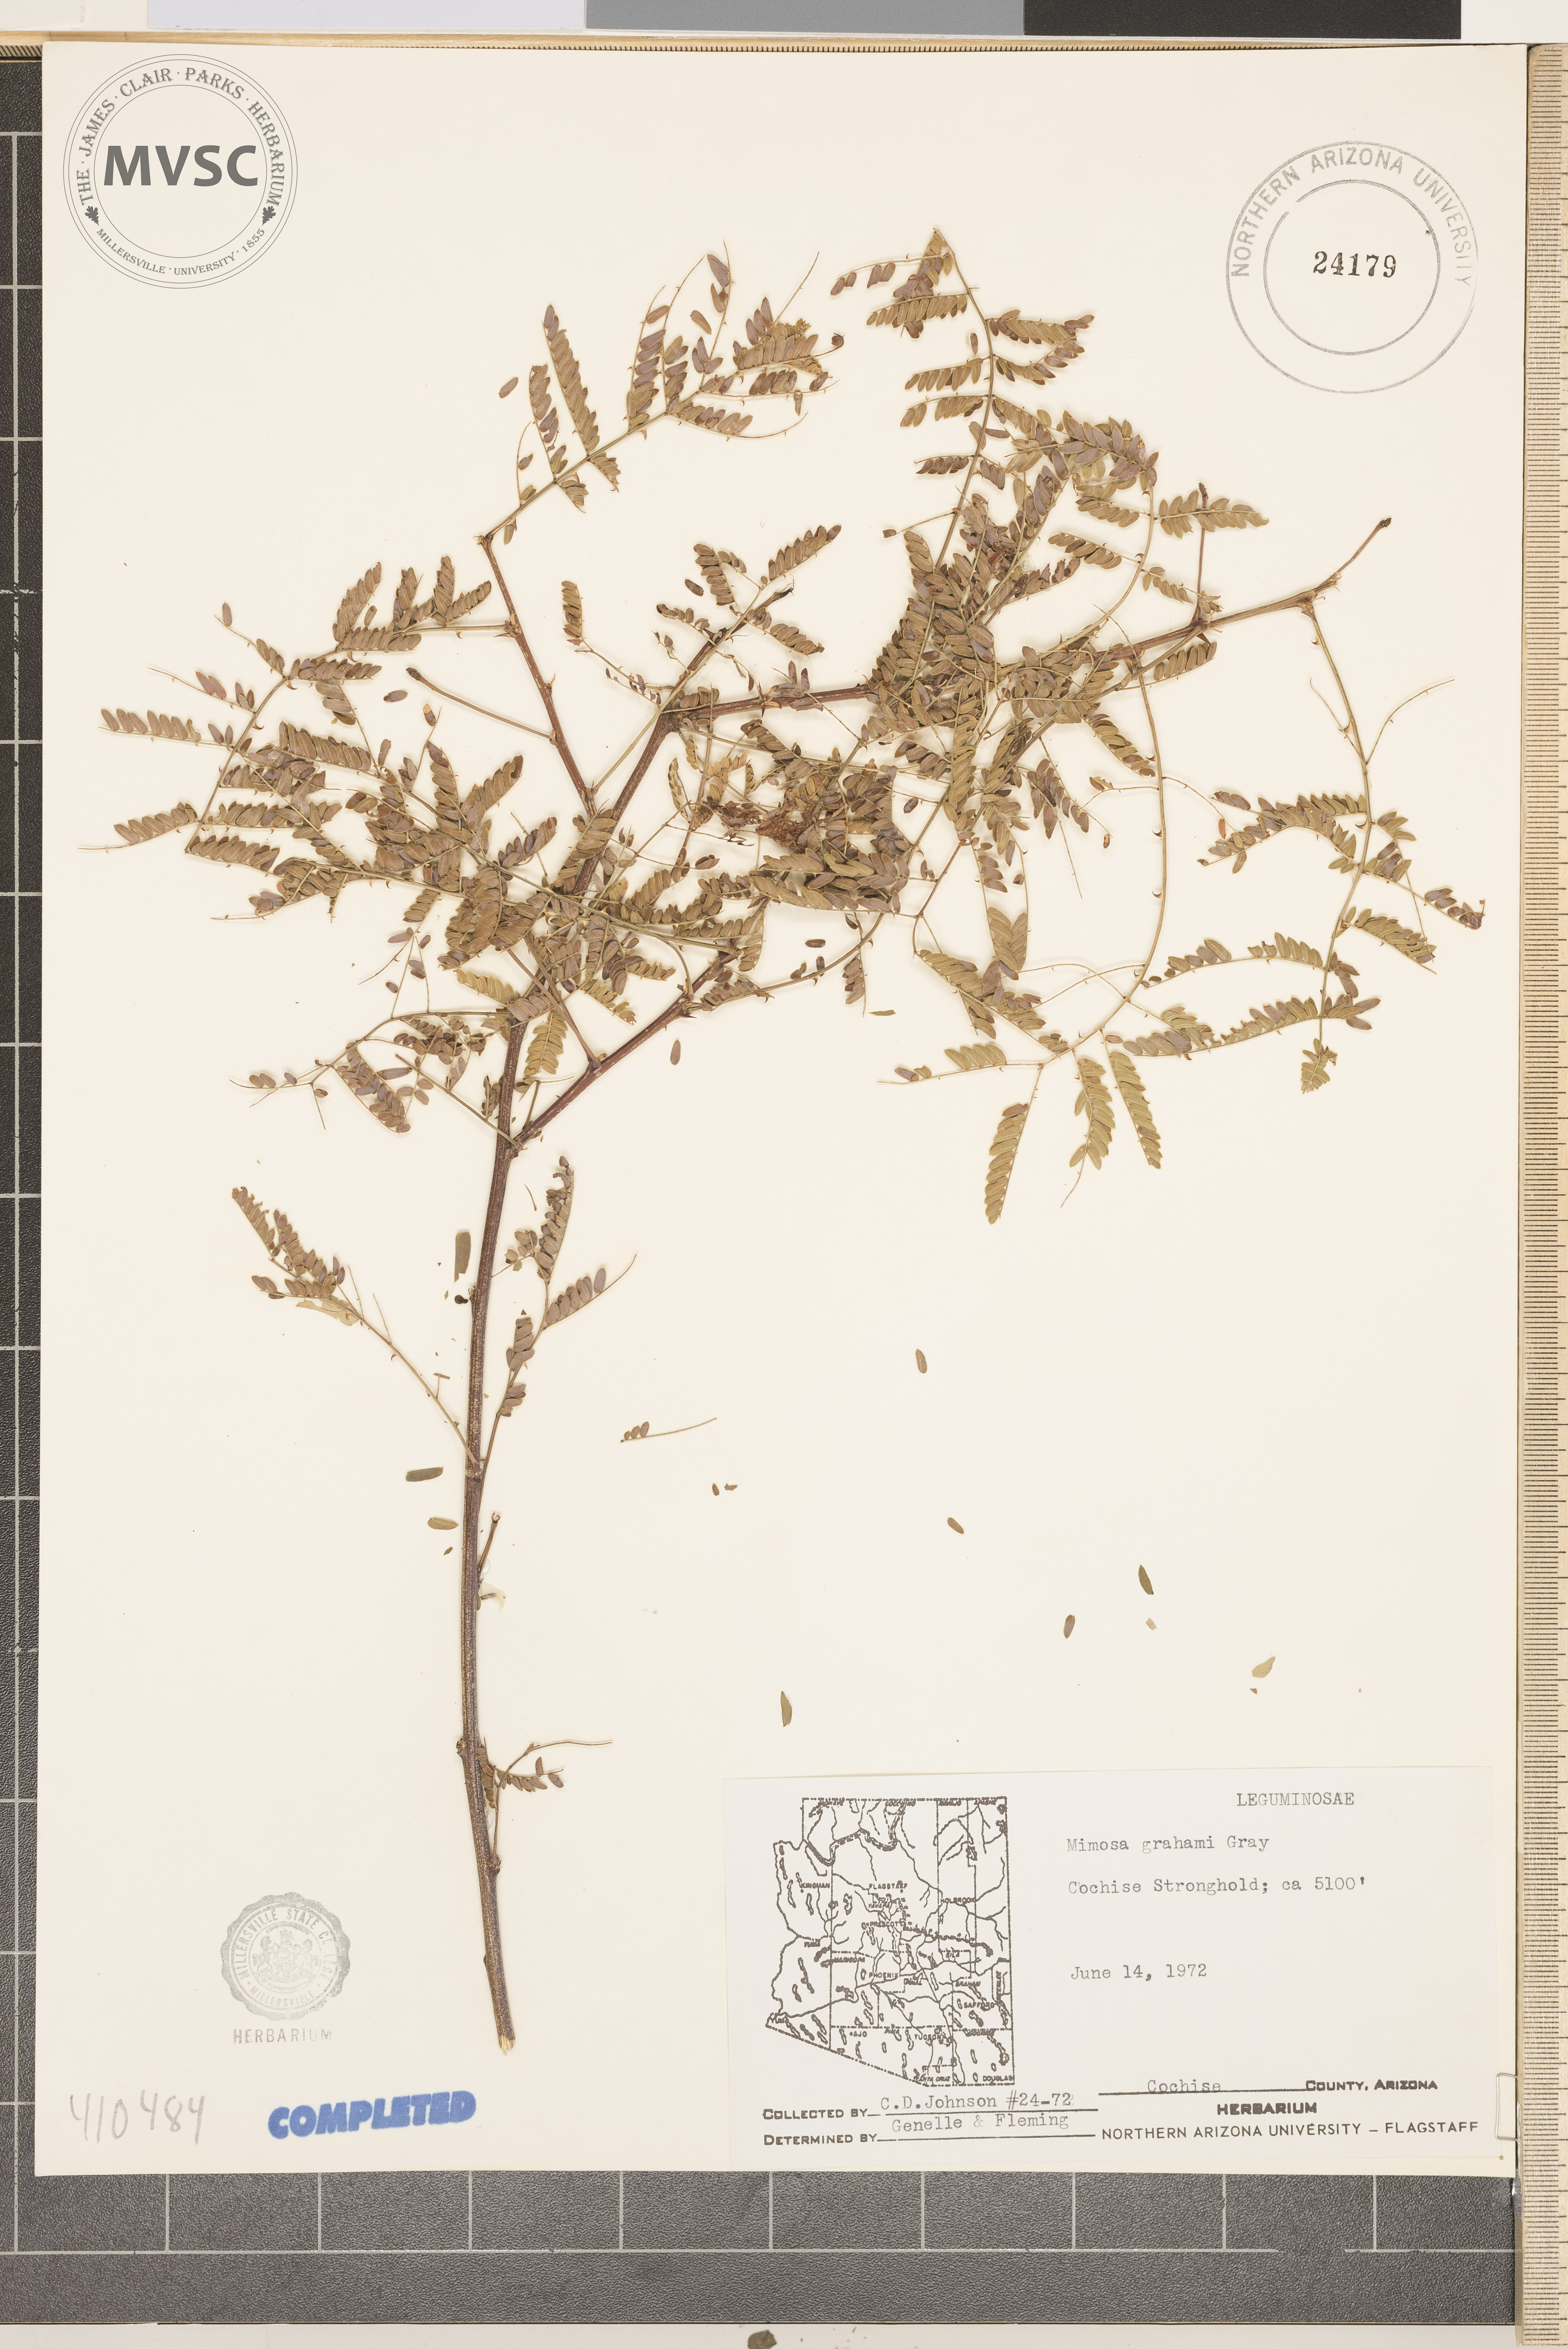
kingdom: Plantae
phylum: Tracheophyta
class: Magnoliopsida
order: Fabales
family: Fabaceae
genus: Mimosa
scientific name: Mimosa grahamii
